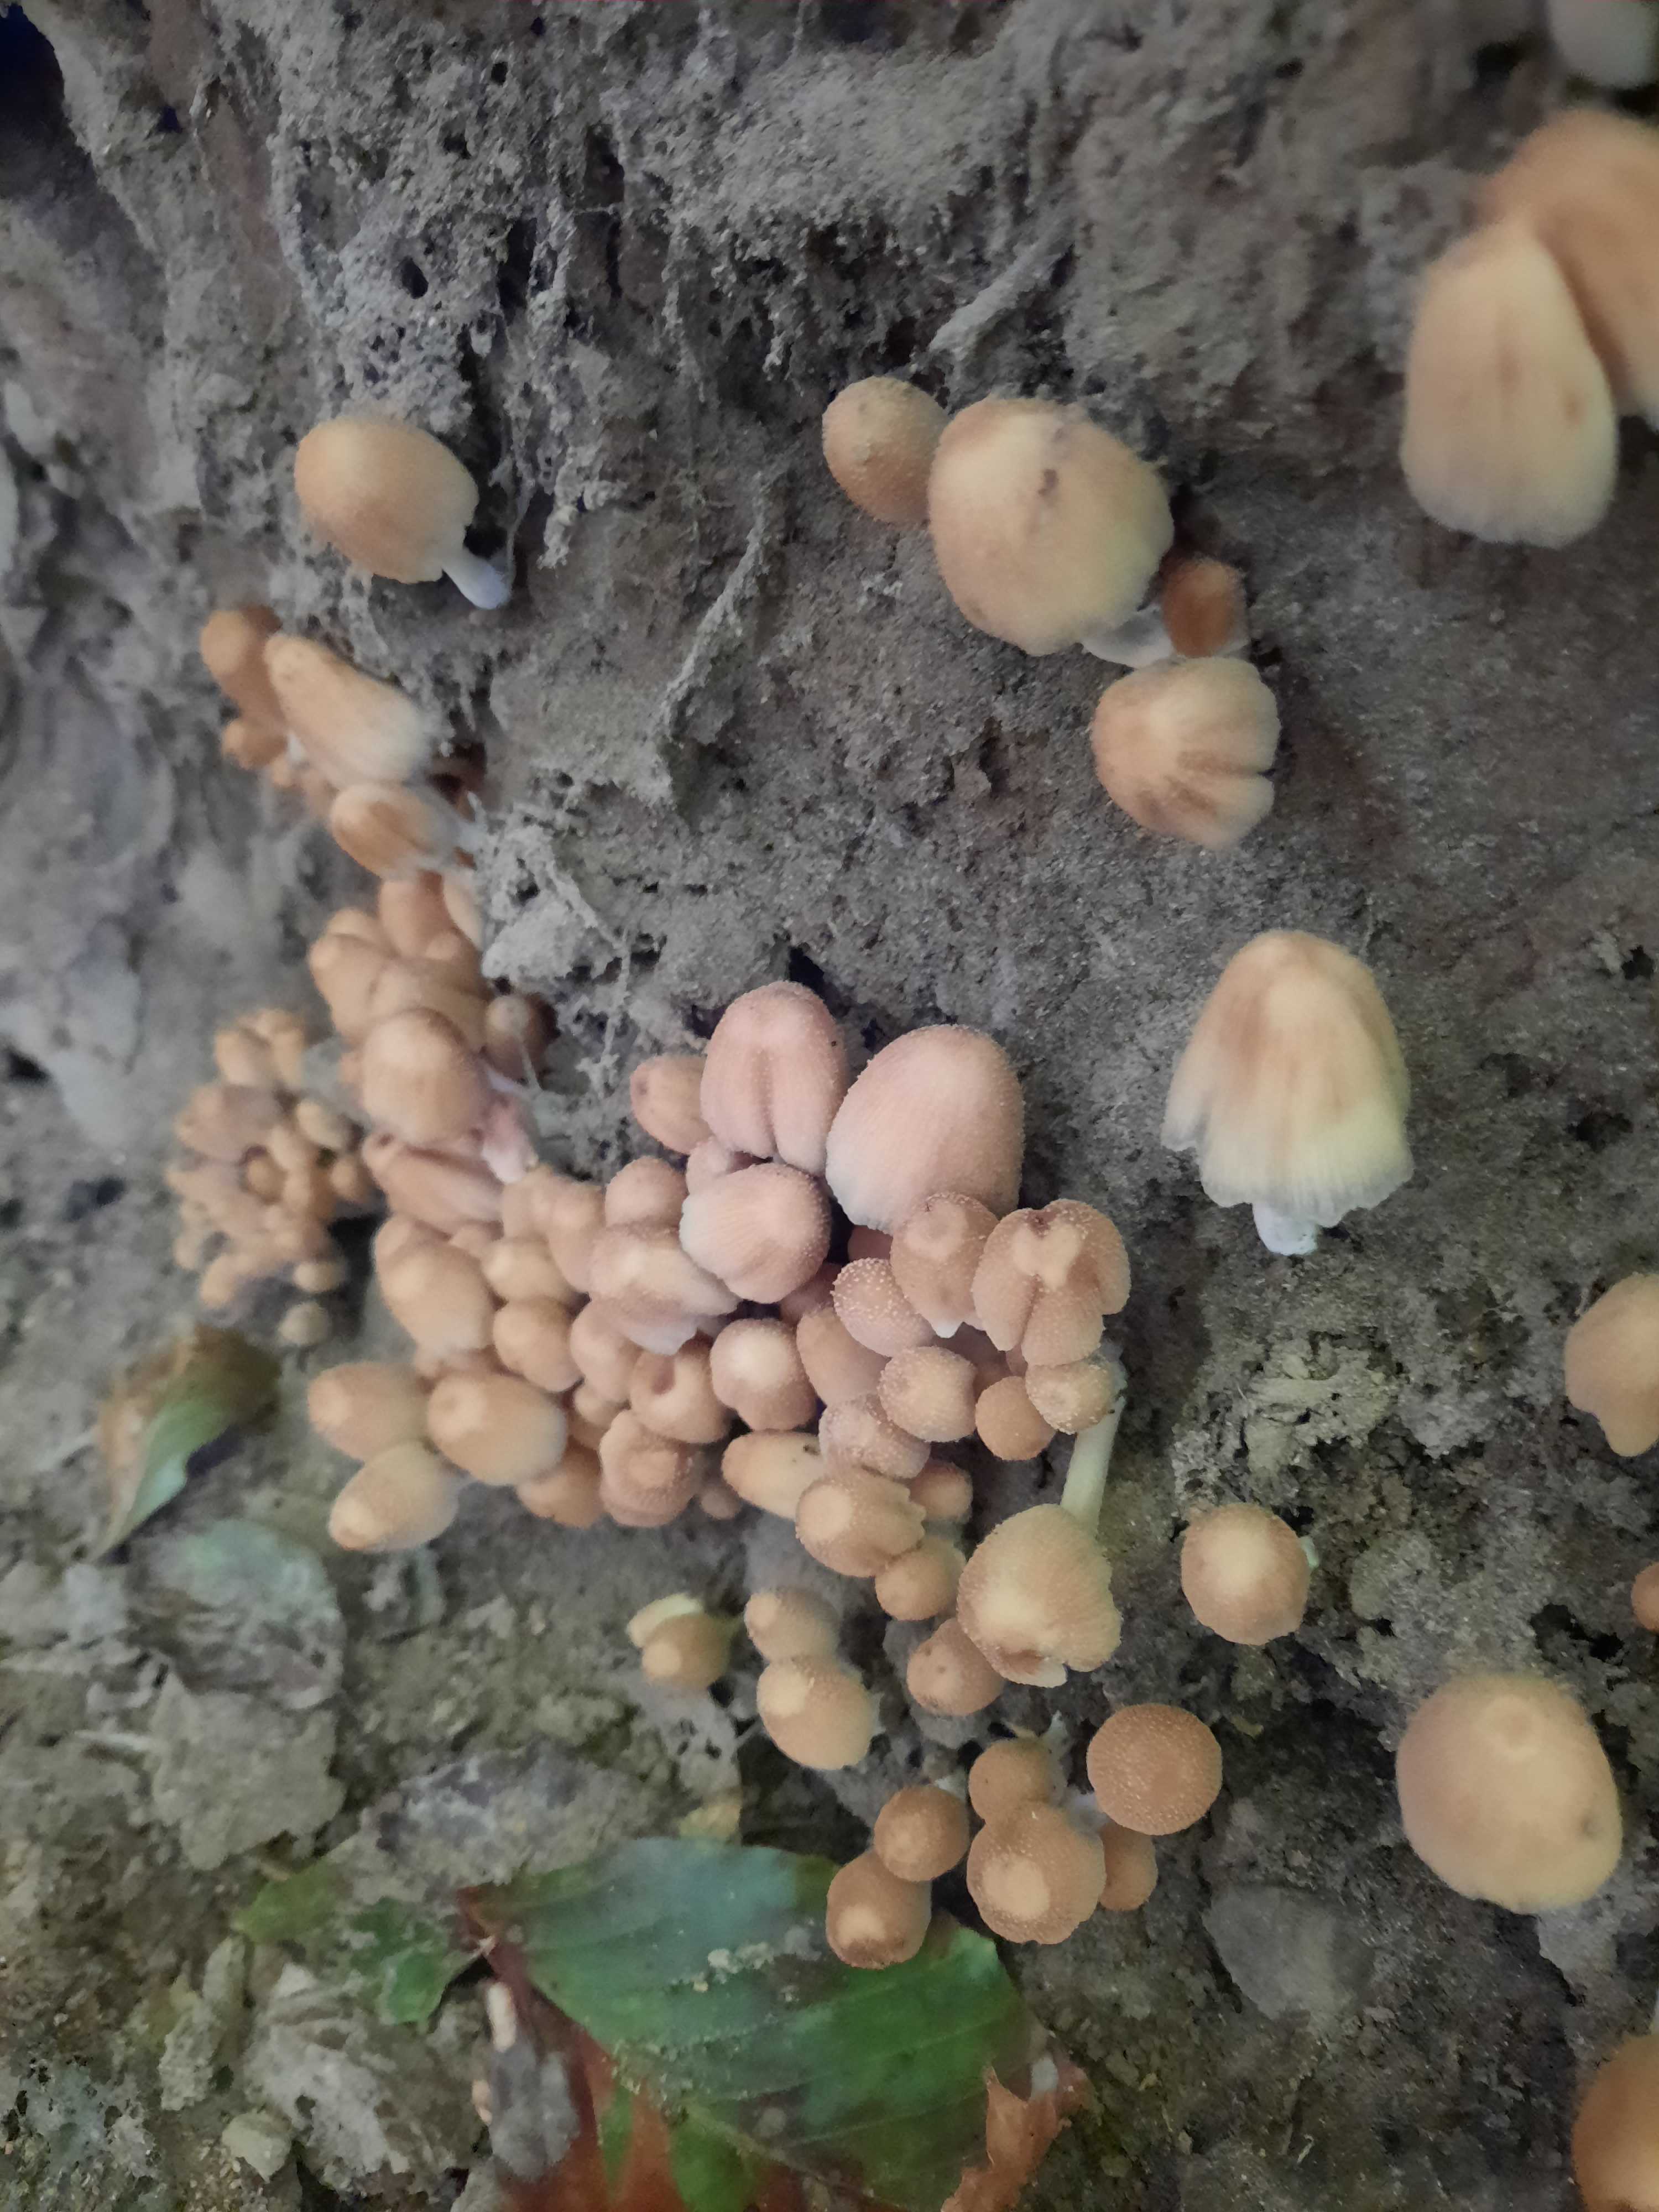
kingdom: Fungi
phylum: Basidiomycota
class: Agaricomycetes
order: Agaricales
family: Psathyrellaceae
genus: Coprinellus
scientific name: Coprinellus micaceus
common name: glimmer-blækhat
